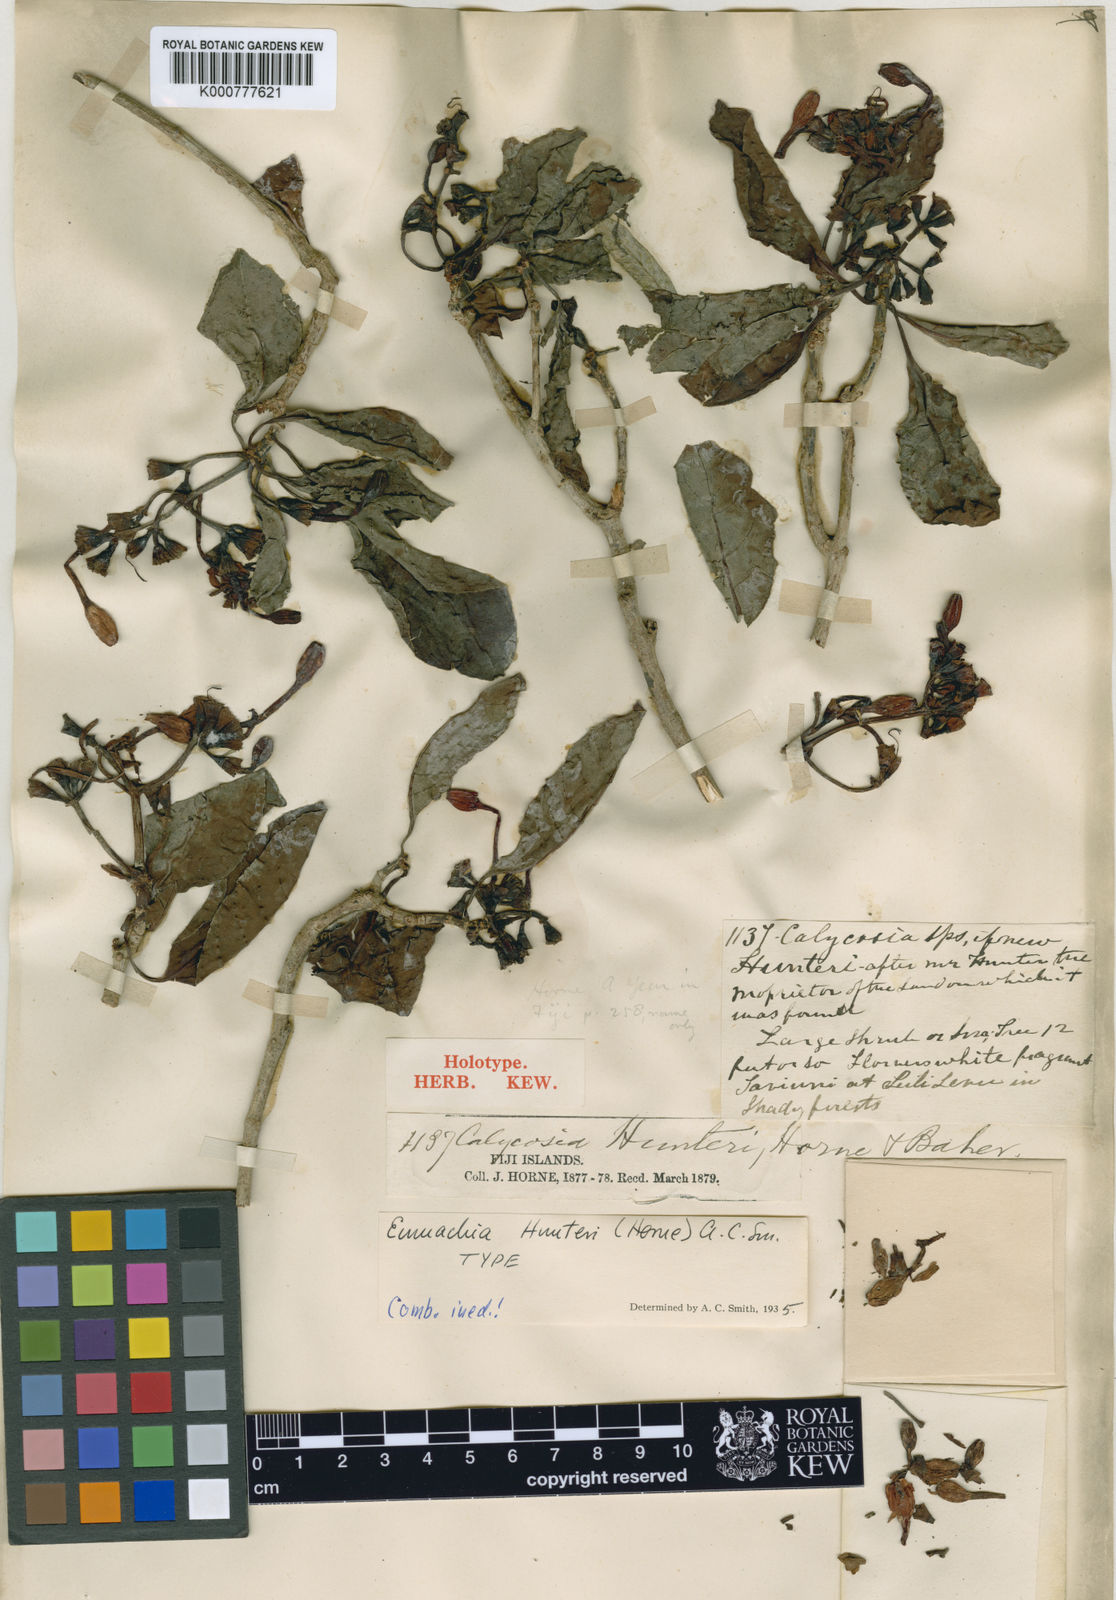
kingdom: Plantae
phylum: Tracheophyta
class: Magnoliopsida
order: Gentianales
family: Rubiaceae
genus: Psychotria
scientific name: Psychotria hunteri
